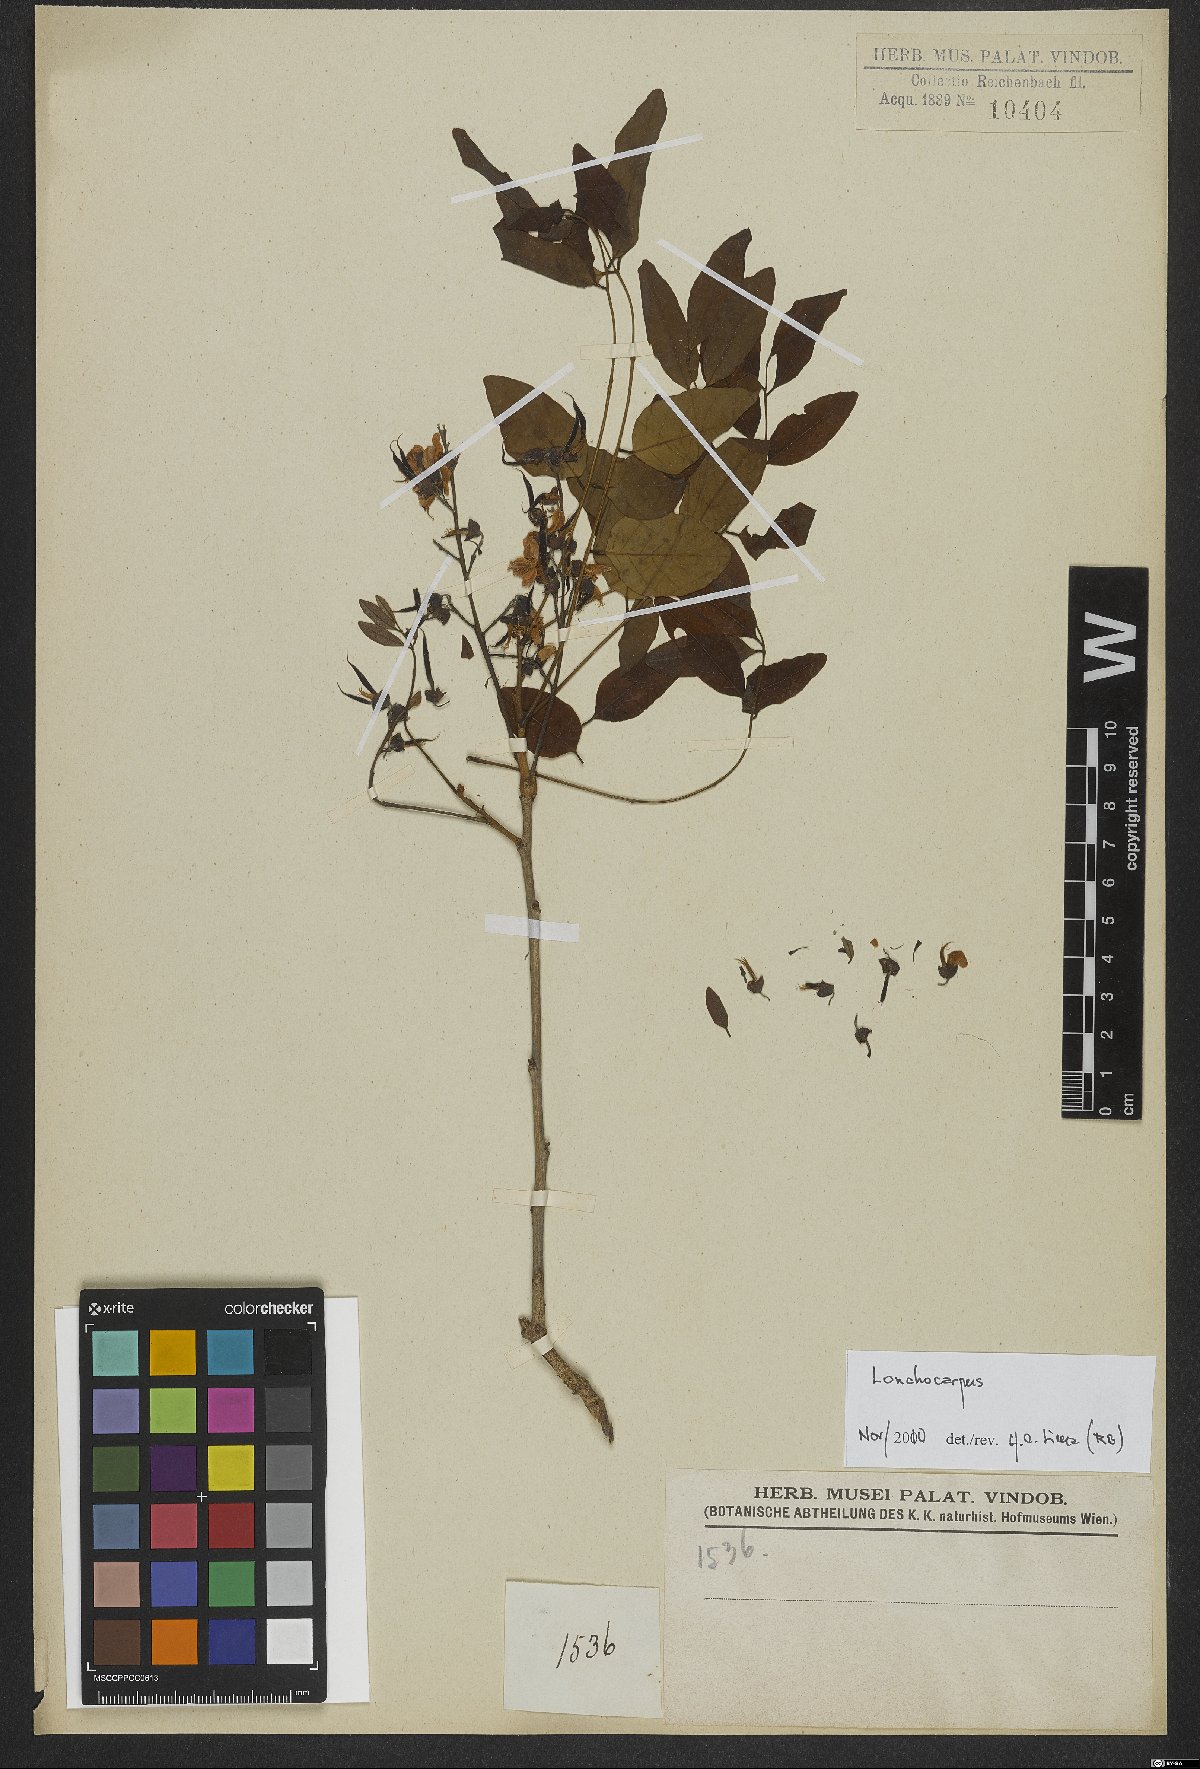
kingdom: Plantae
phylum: Tracheophyta
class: Magnoliopsida
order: Fabales
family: Fabaceae
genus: Lonchocarpus
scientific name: Lonchocarpus
